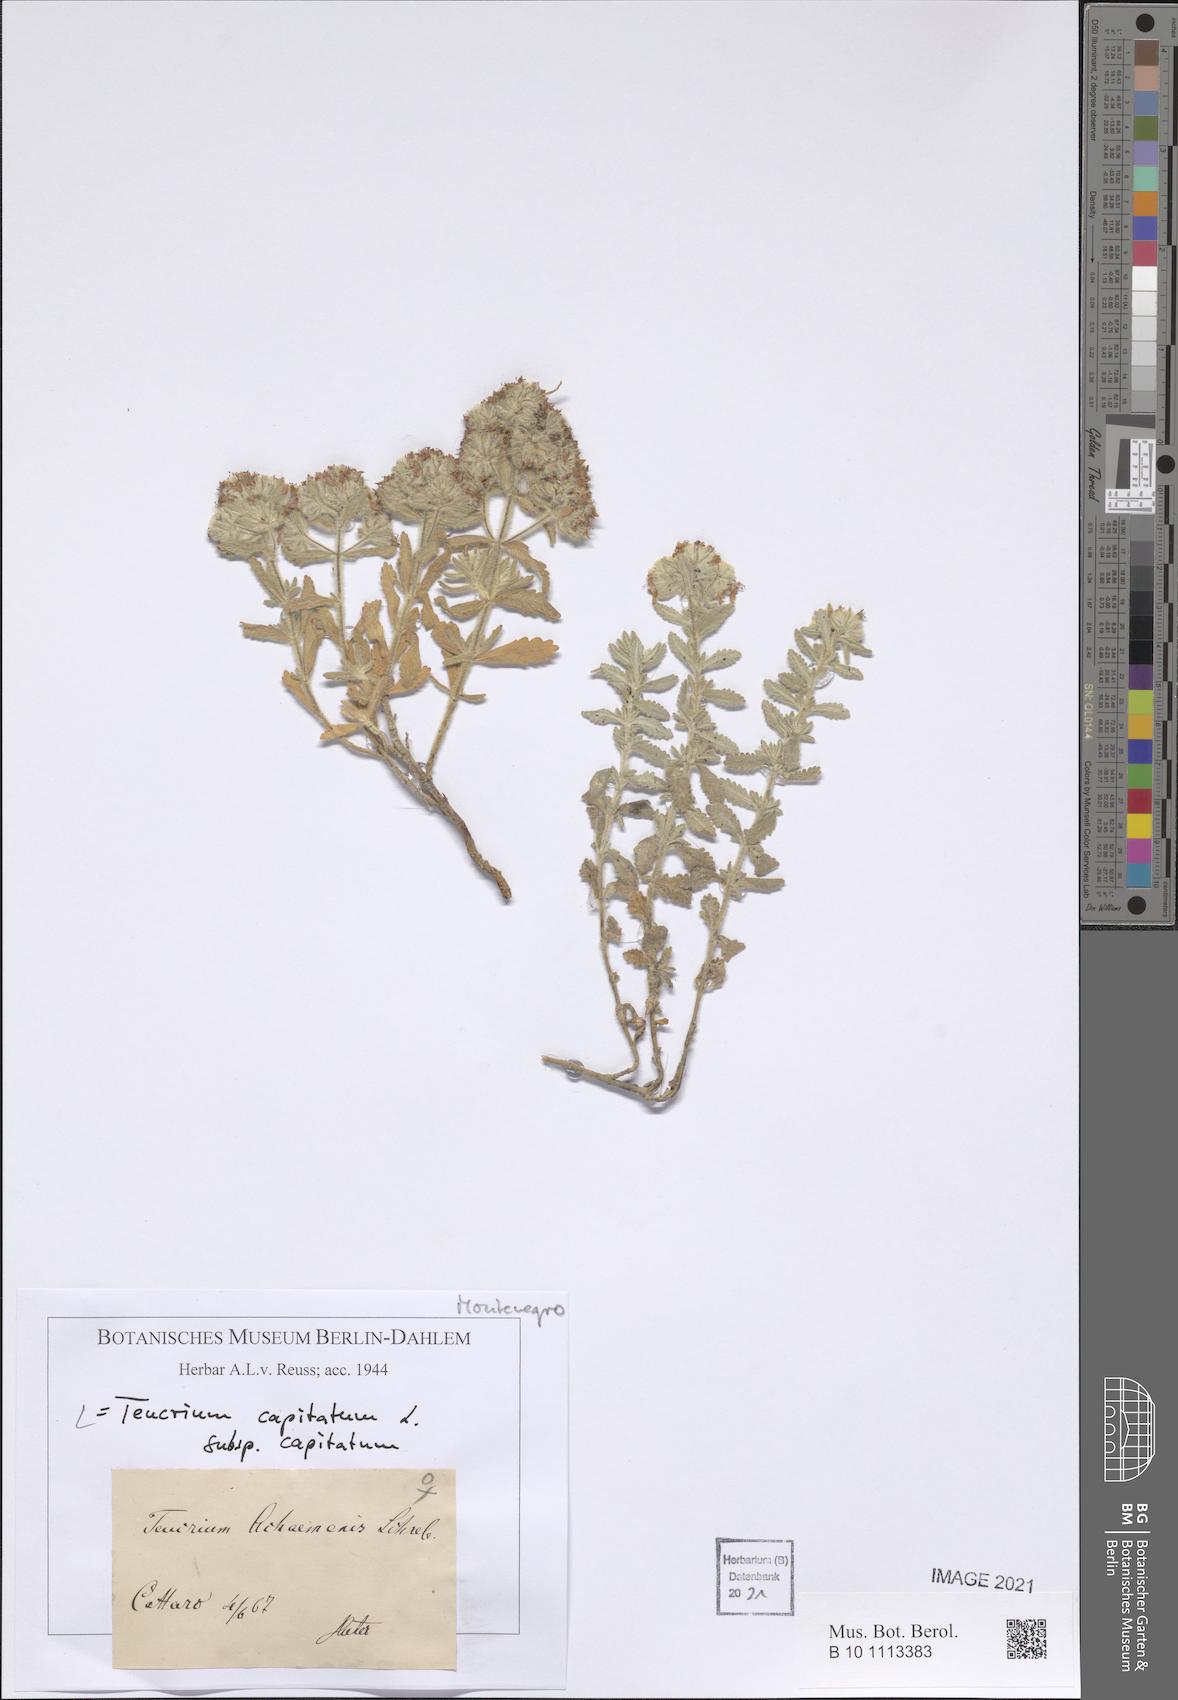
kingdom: Plantae
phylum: Tracheophyta
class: Magnoliopsida
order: Lamiales
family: Lamiaceae
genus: Teucrium
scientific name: Teucrium capitatum
